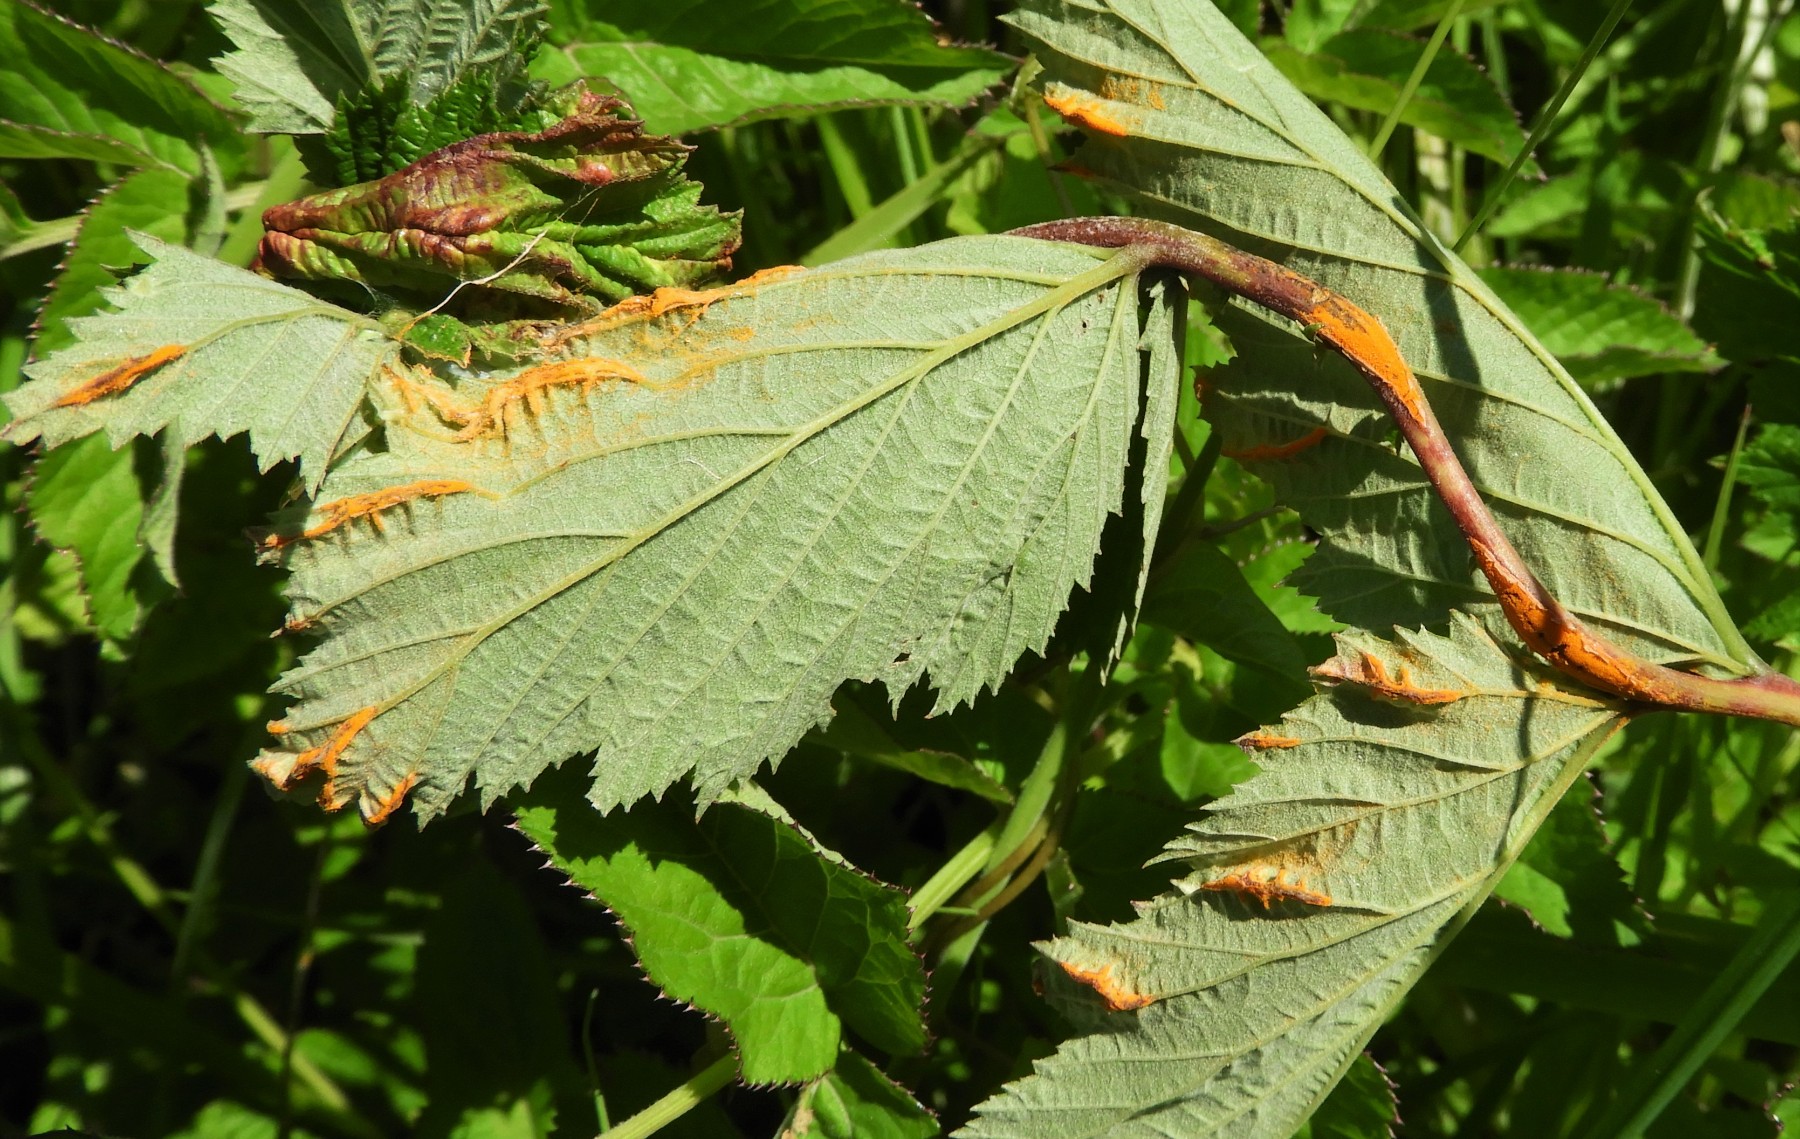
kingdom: Fungi
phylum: Basidiomycota
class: Pucciniomycetes
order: Pucciniales
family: Raveneliaceae
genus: Triphragmium
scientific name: Triphragmium ulmariae
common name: almindelig mjødurtrust
